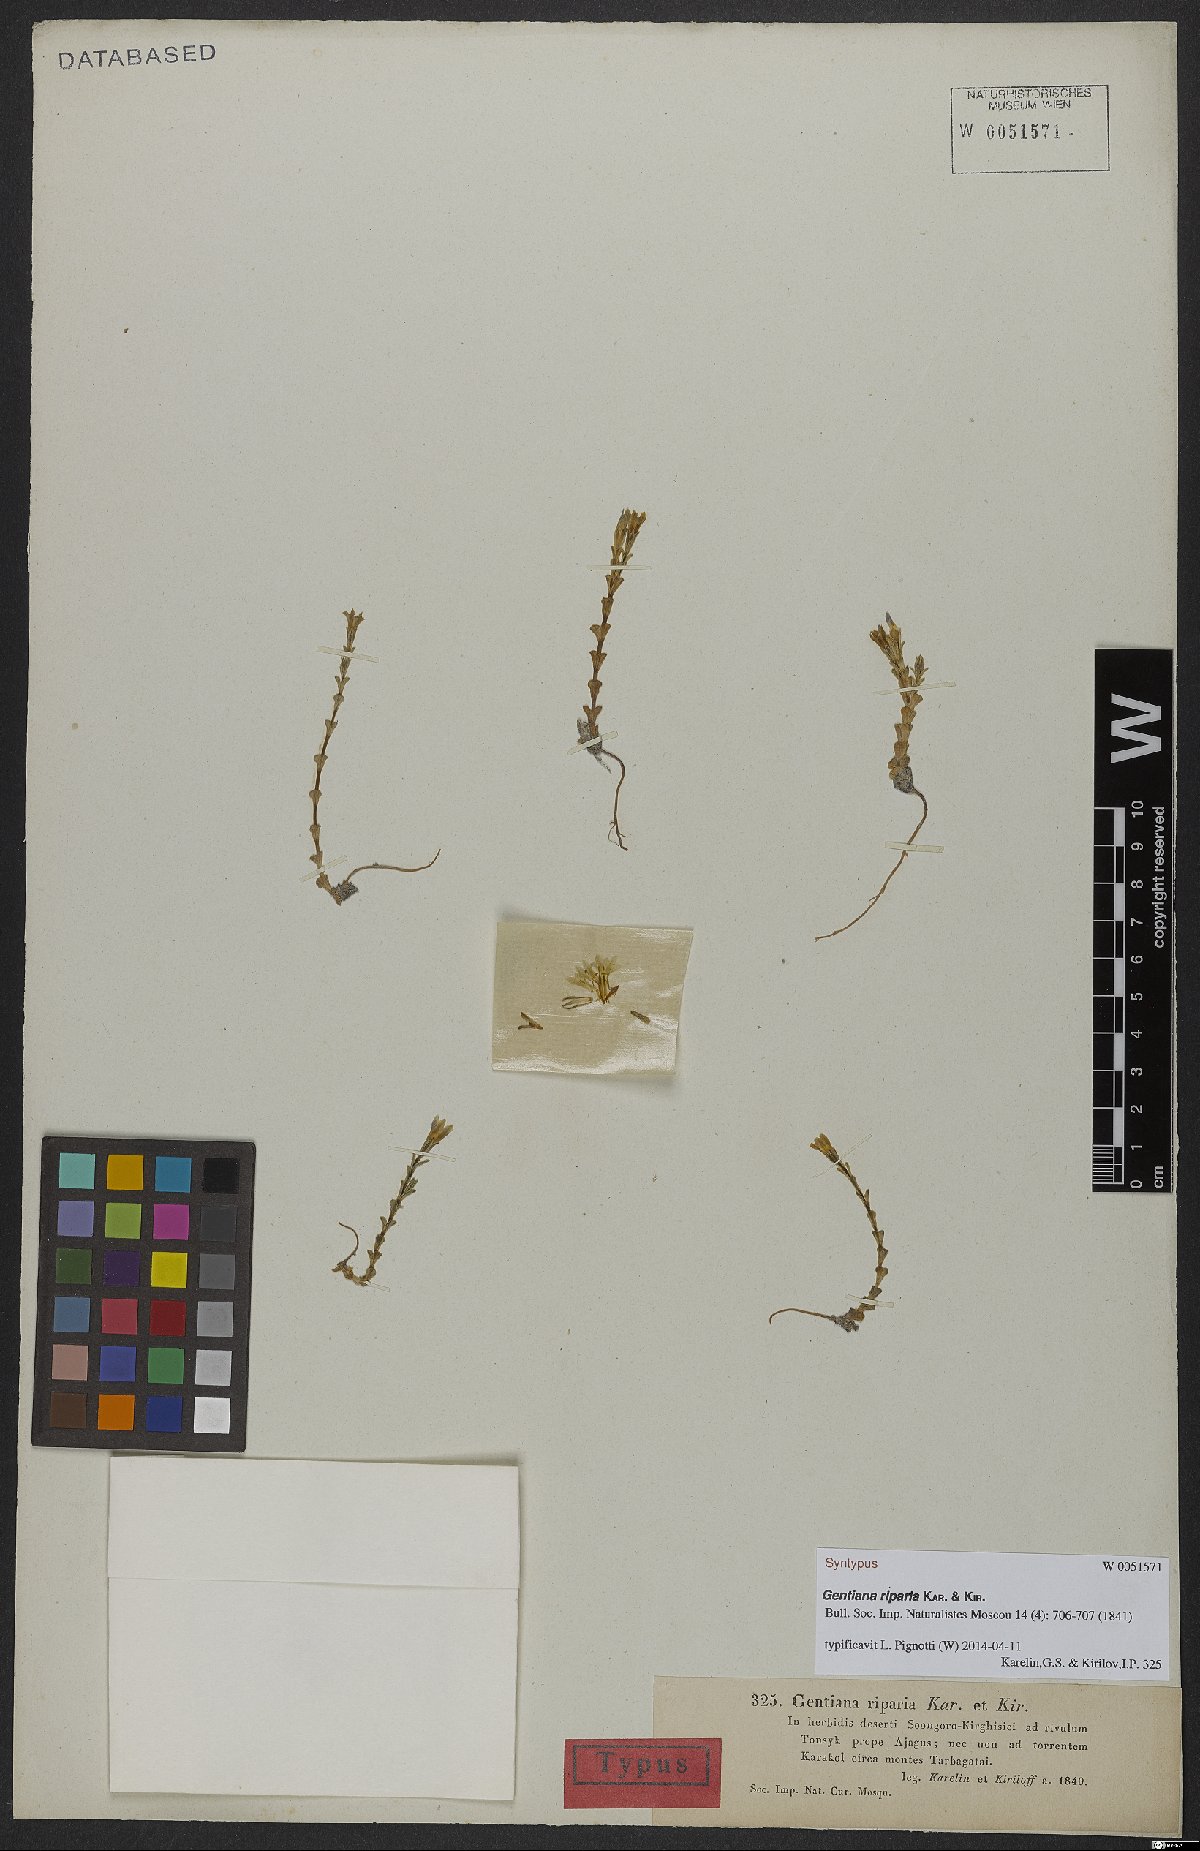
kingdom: Plantae
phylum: Tracheophyta
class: Magnoliopsida
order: Gentianales
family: Gentianaceae
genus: Gentiana
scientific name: Gentiana riparia
